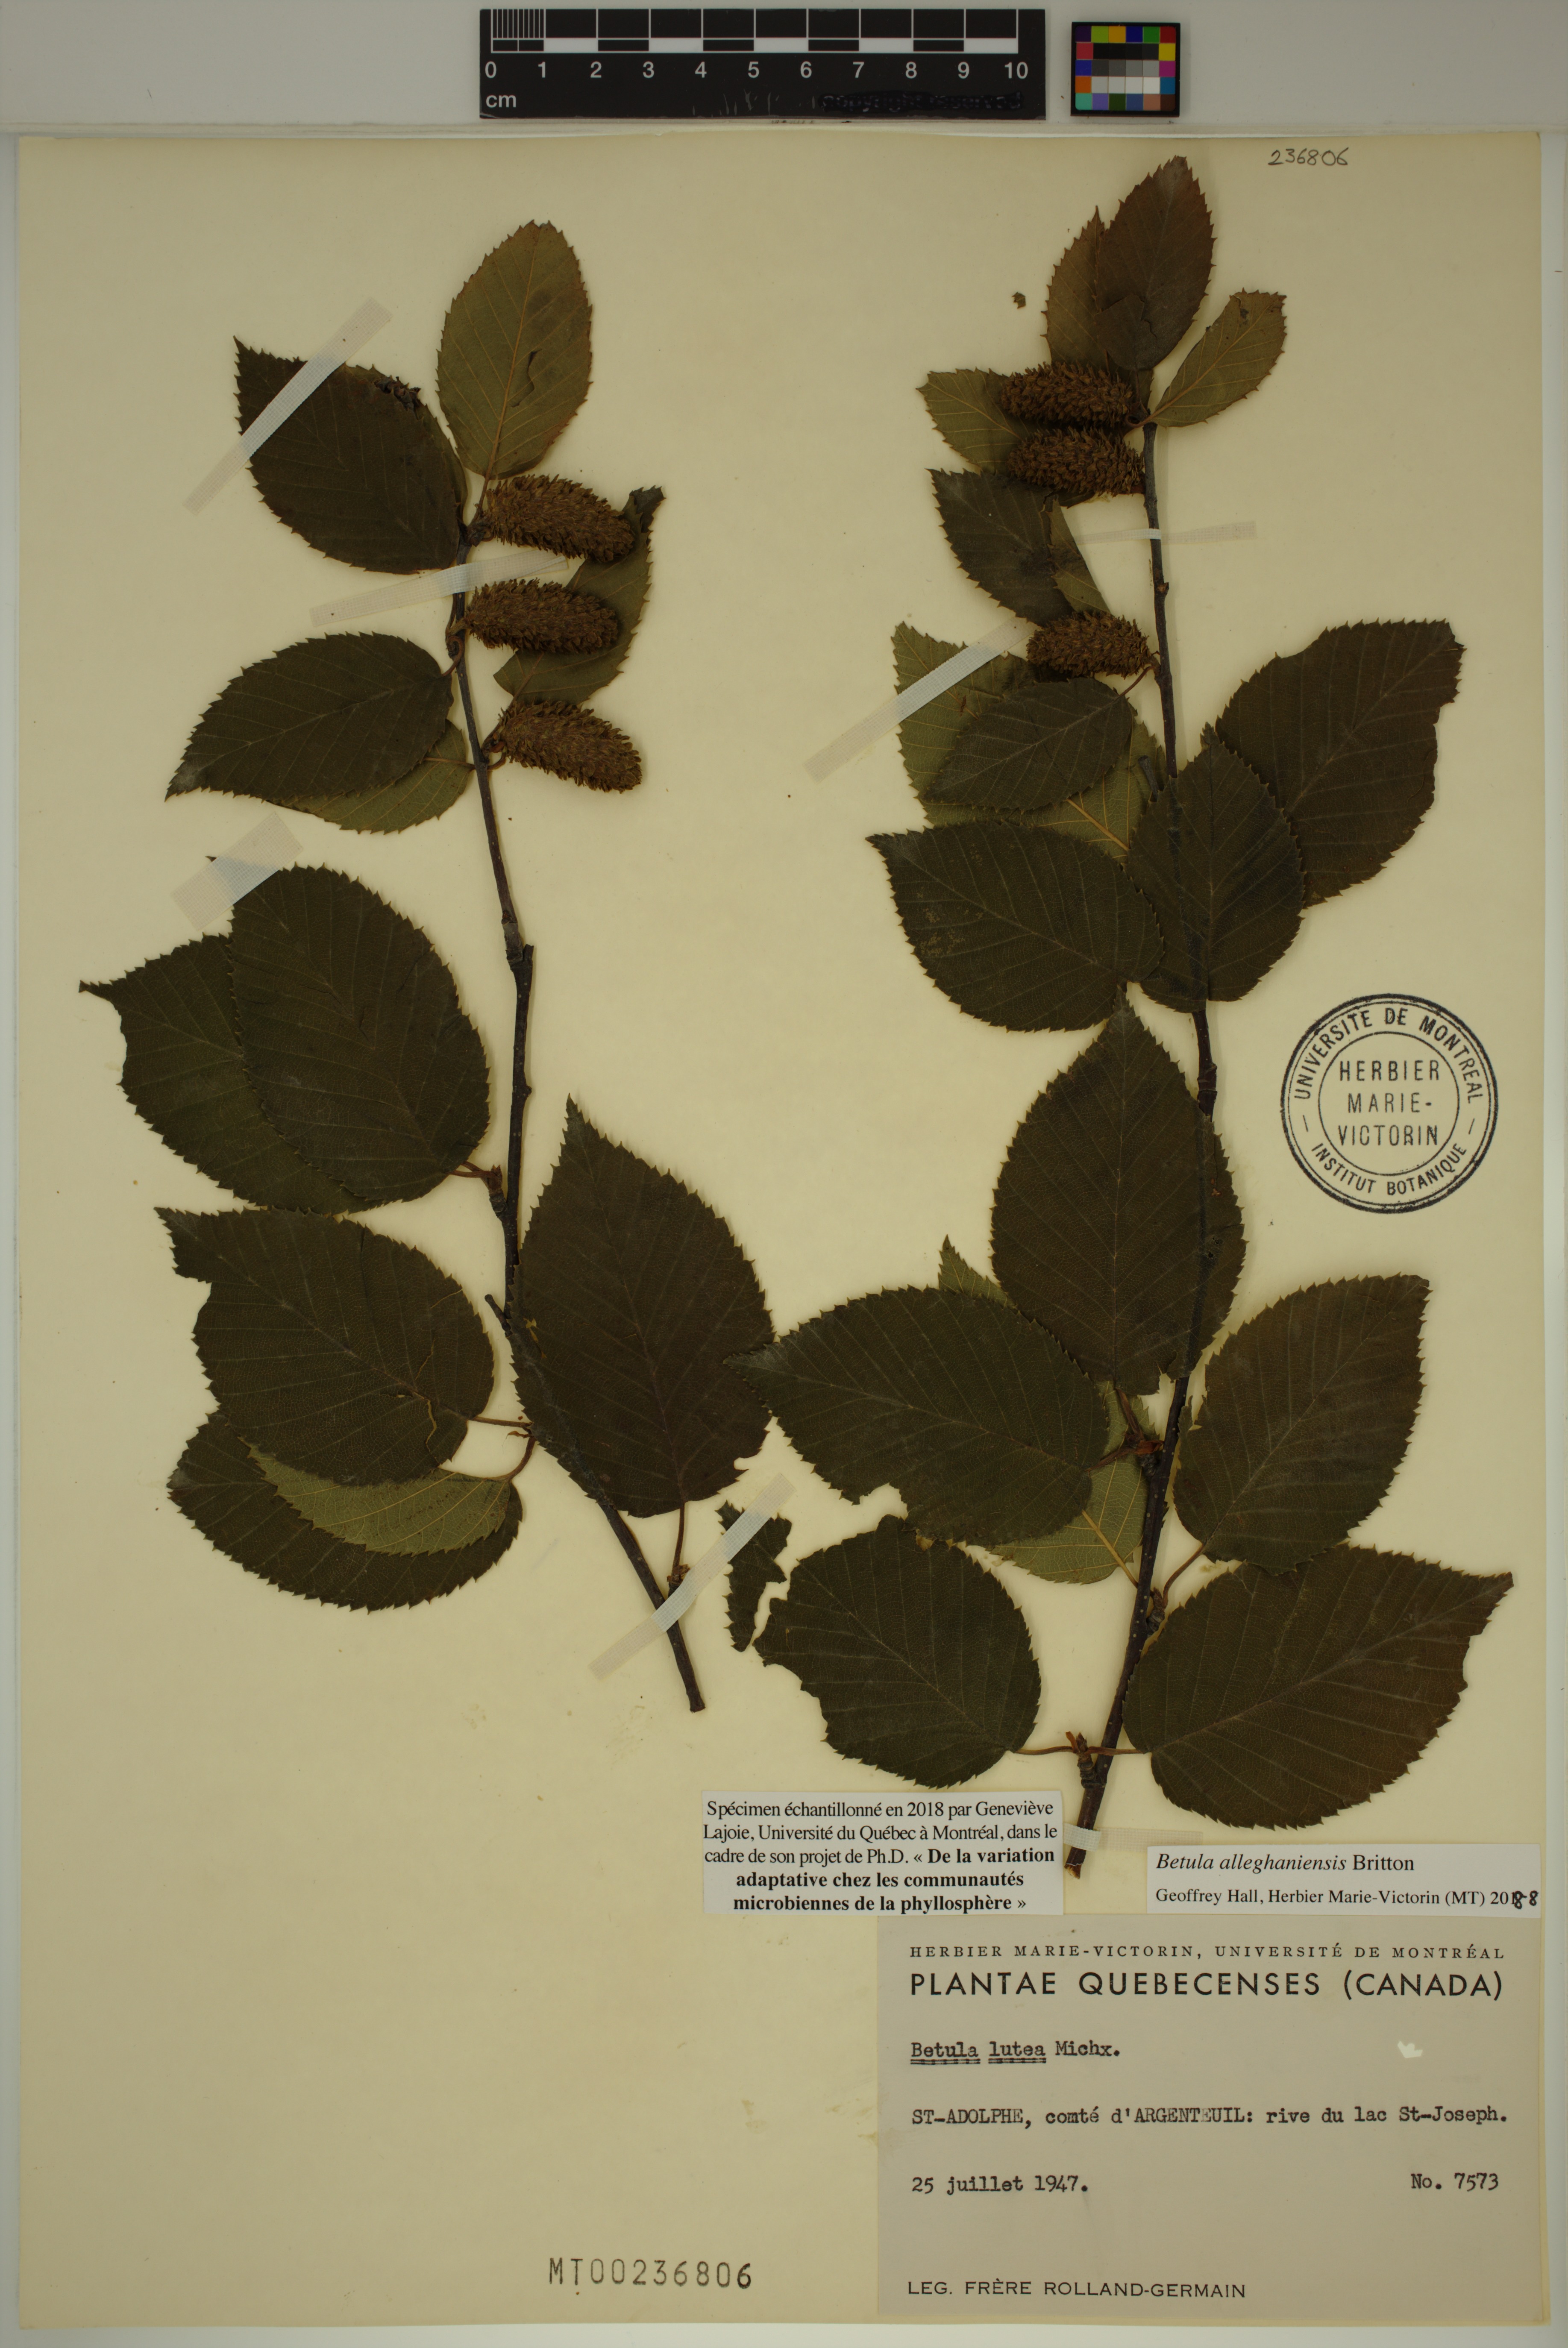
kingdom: Plantae
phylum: Tracheophyta
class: Magnoliopsida
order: Fagales
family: Betulaceae
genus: Betula
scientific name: Betula alleghaniensis
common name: Yellow birch
